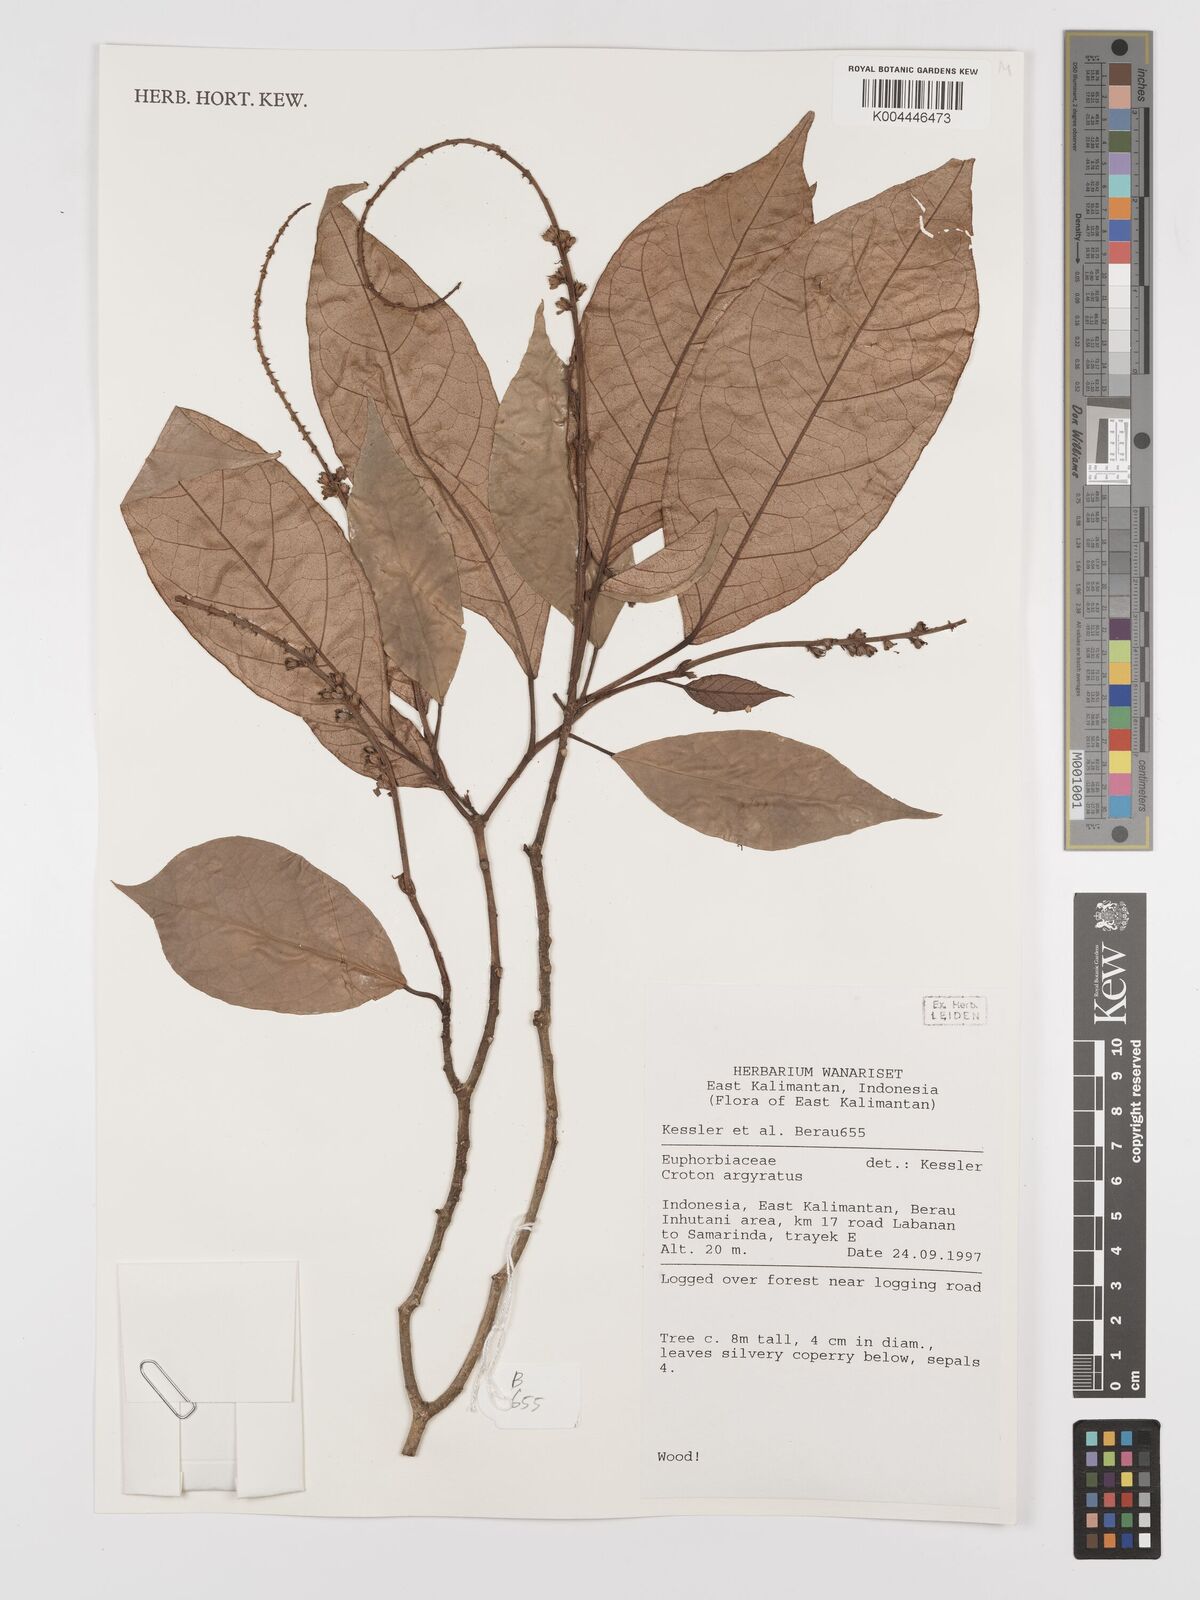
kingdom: Plantae
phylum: Tracheophyta
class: Magnoliopsida
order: Malpighiales
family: Euphorbiaceae
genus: Croton
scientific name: Croton argyratus
